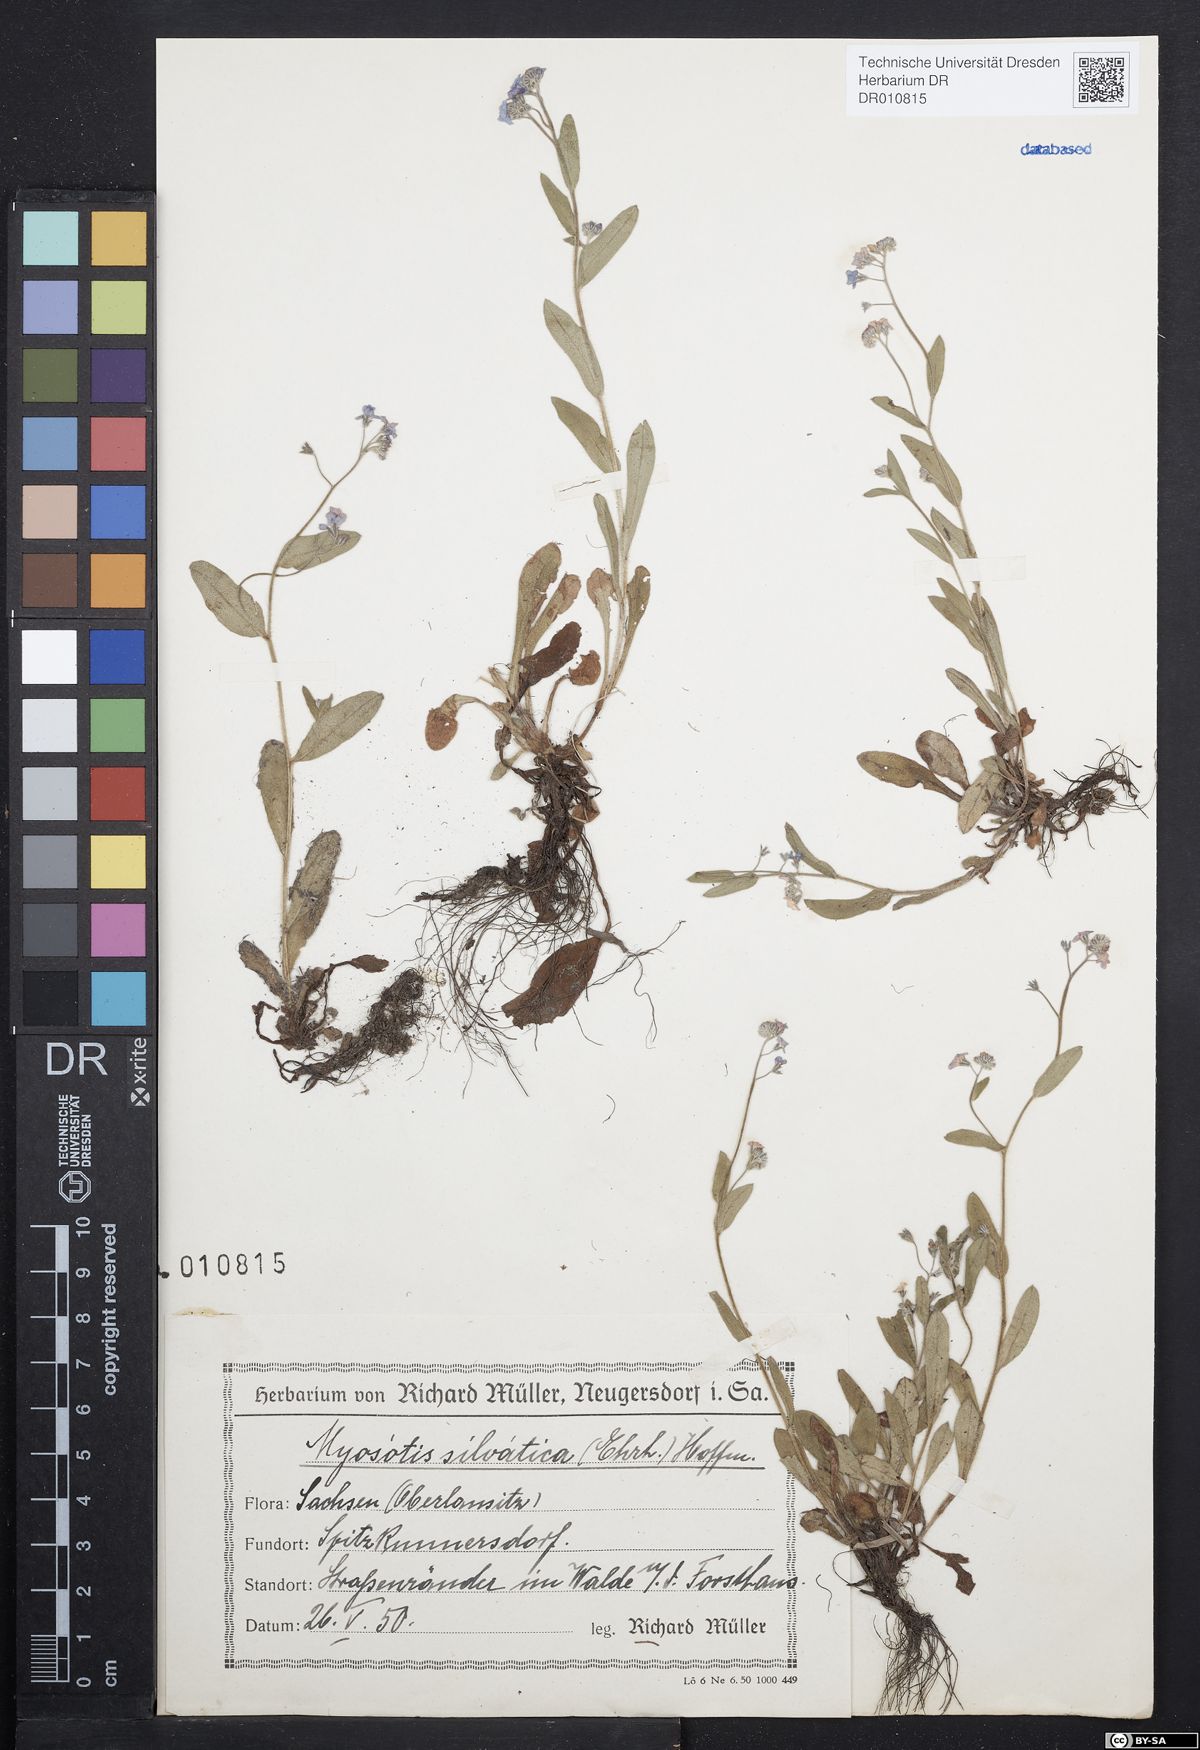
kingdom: Plantae
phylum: Tracheophyta
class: Magnoliopsida
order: Boraginales
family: Boraginaceae
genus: Myosotis
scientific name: Myosotis sylvatica
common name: Wood forget-me-not
